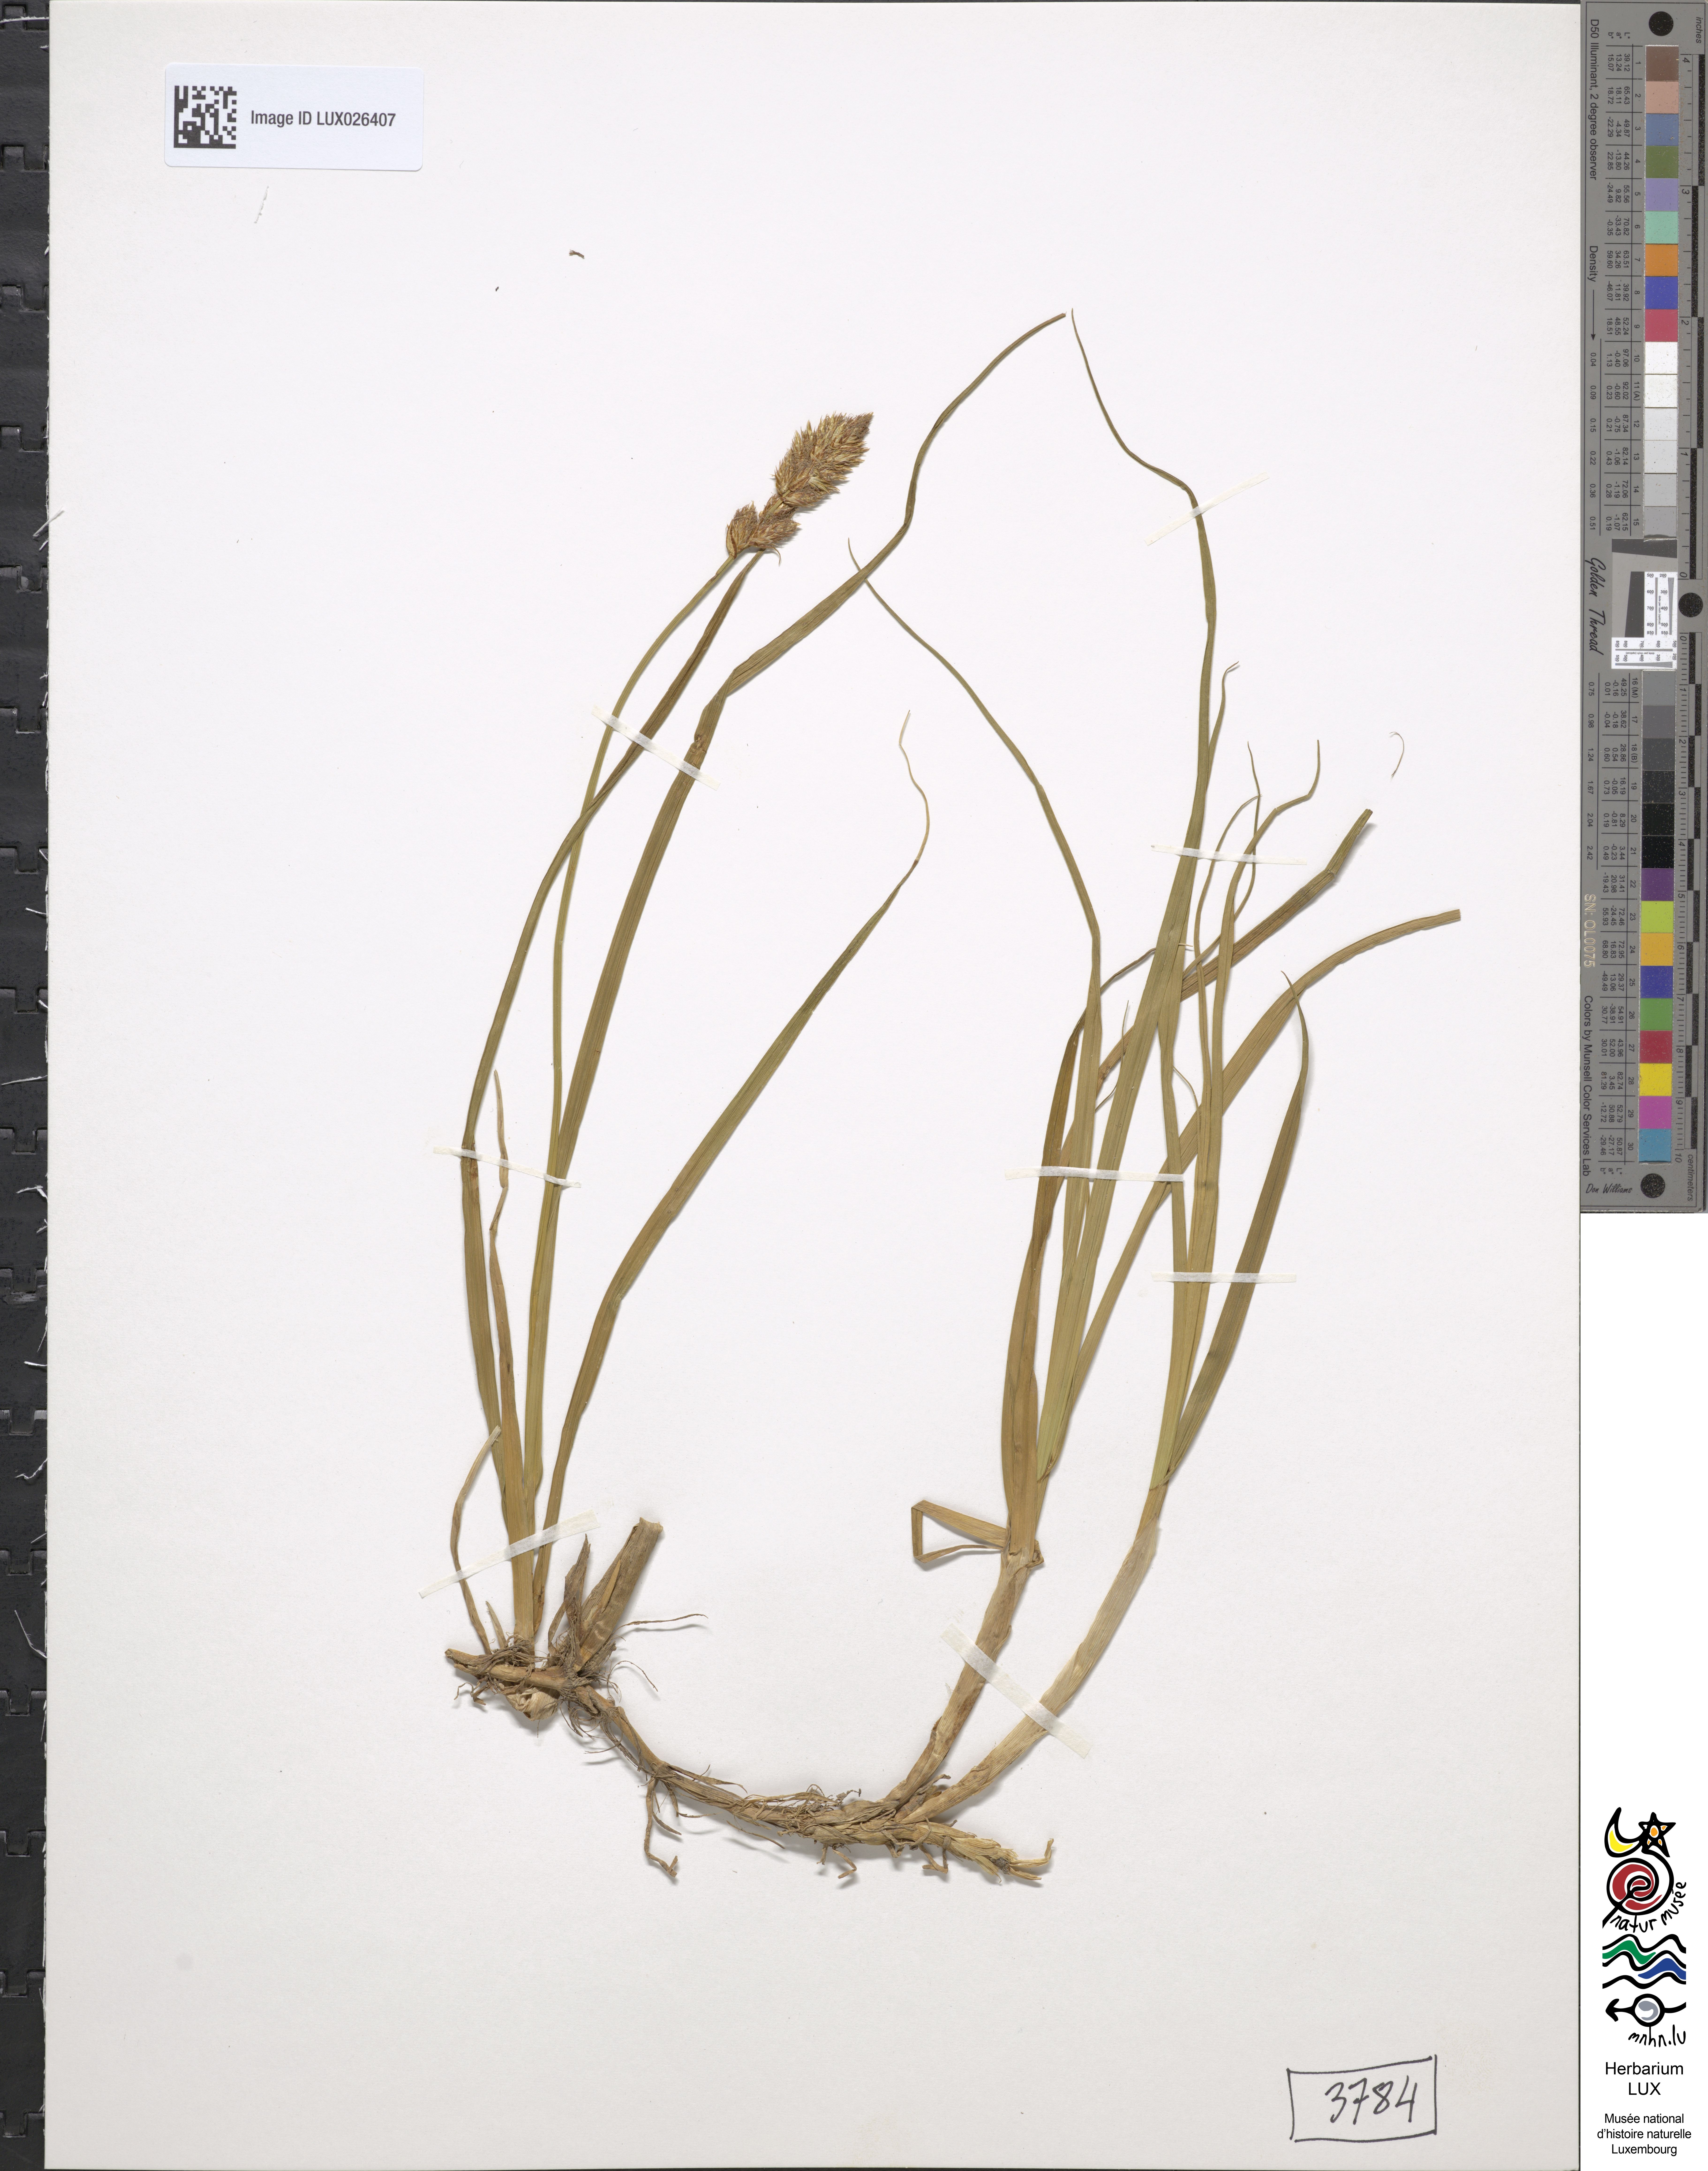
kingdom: Plantae
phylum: Tracheophyta
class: Liliopsida
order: Poales
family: Cyperaceae
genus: Carex
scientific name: Carex disticha
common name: Brown sedge
